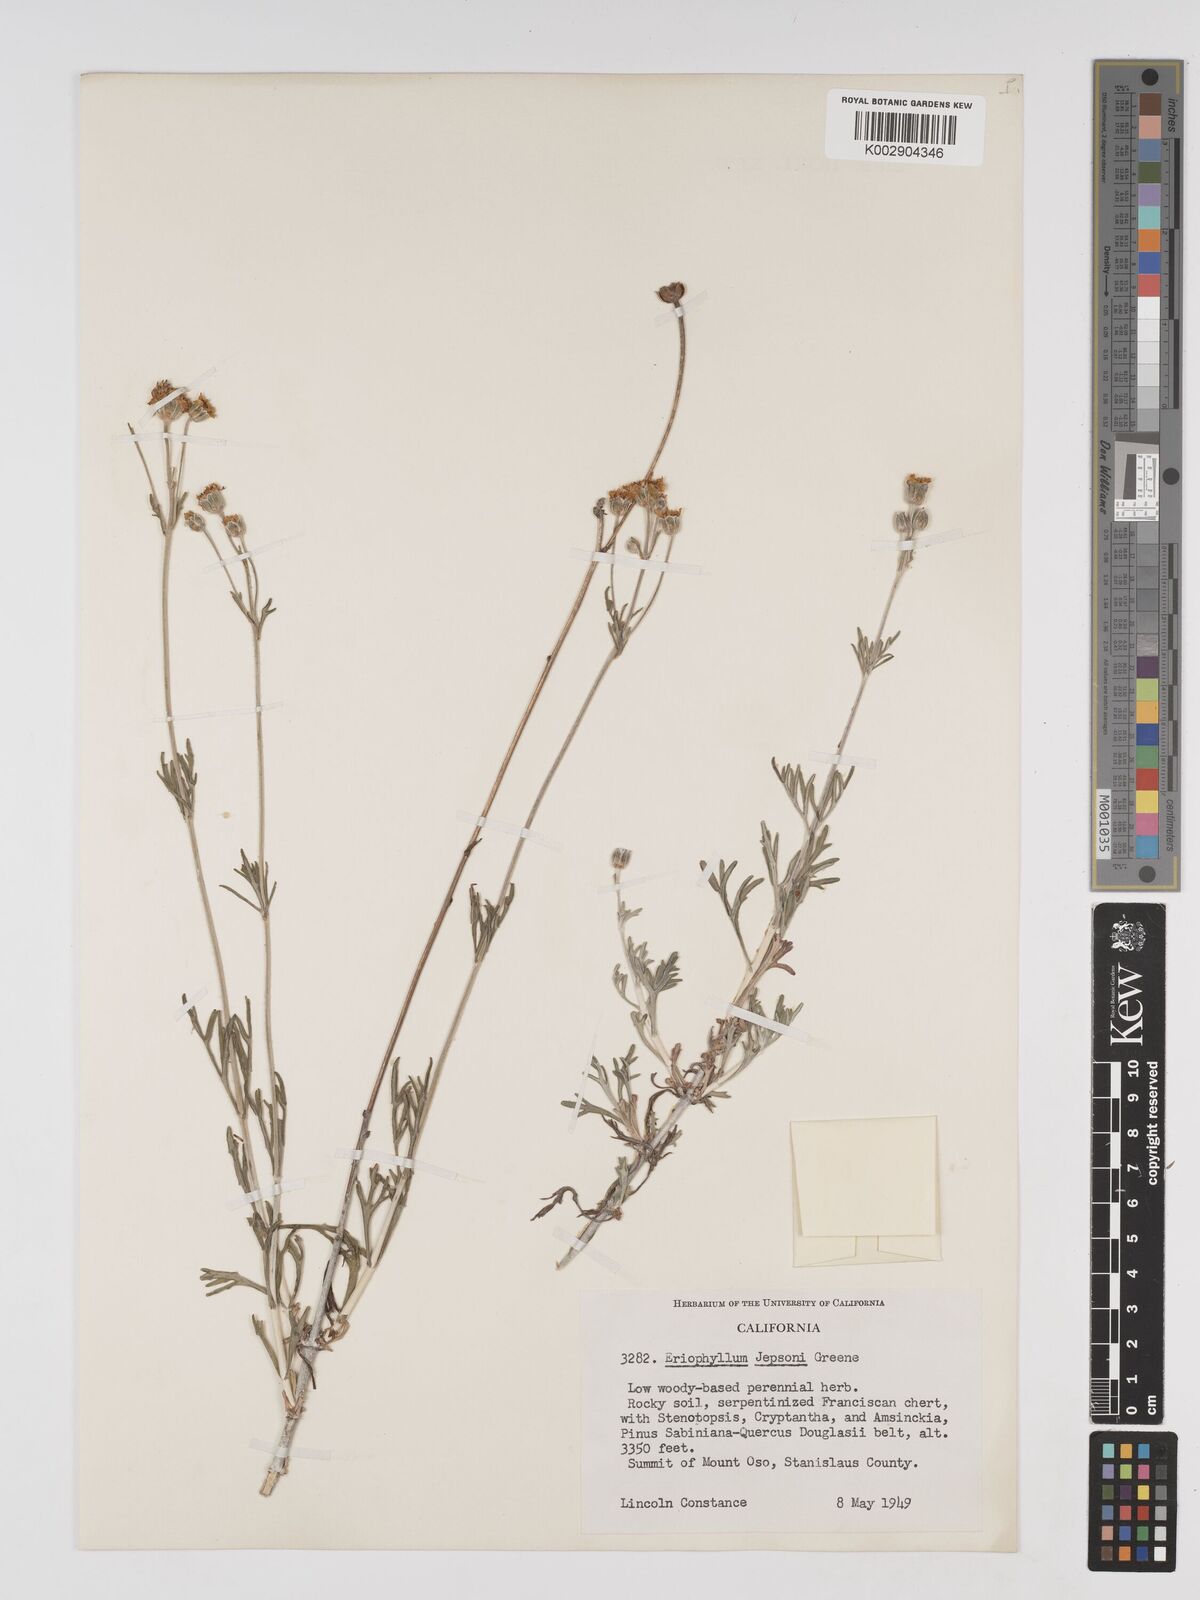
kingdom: Plantae
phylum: Tracheophyta
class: Magnoliopsida
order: Asterales
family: Asteraceae
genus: Eriophyllum
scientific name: Eriophyllum jepsonii
